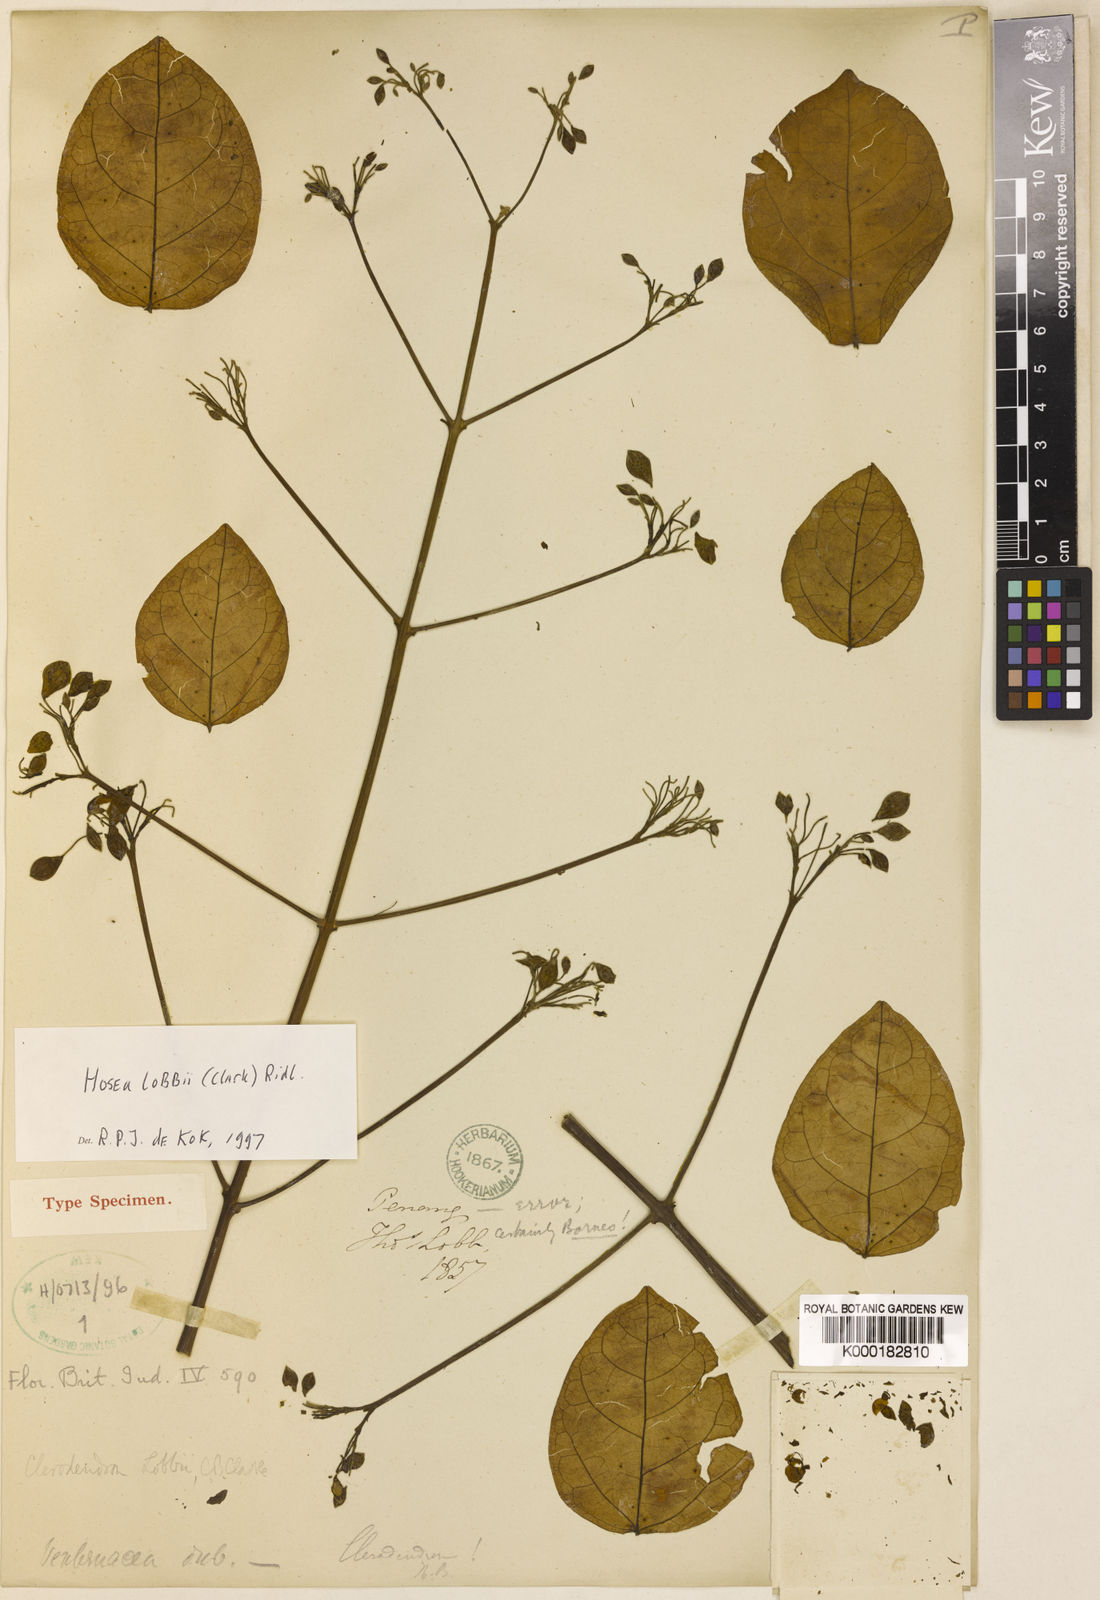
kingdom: Plantae
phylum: Tracheophyta
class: Magnoliopsida
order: Lamiales
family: Lamiaceae
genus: Hosea
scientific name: Hosea lobbii
